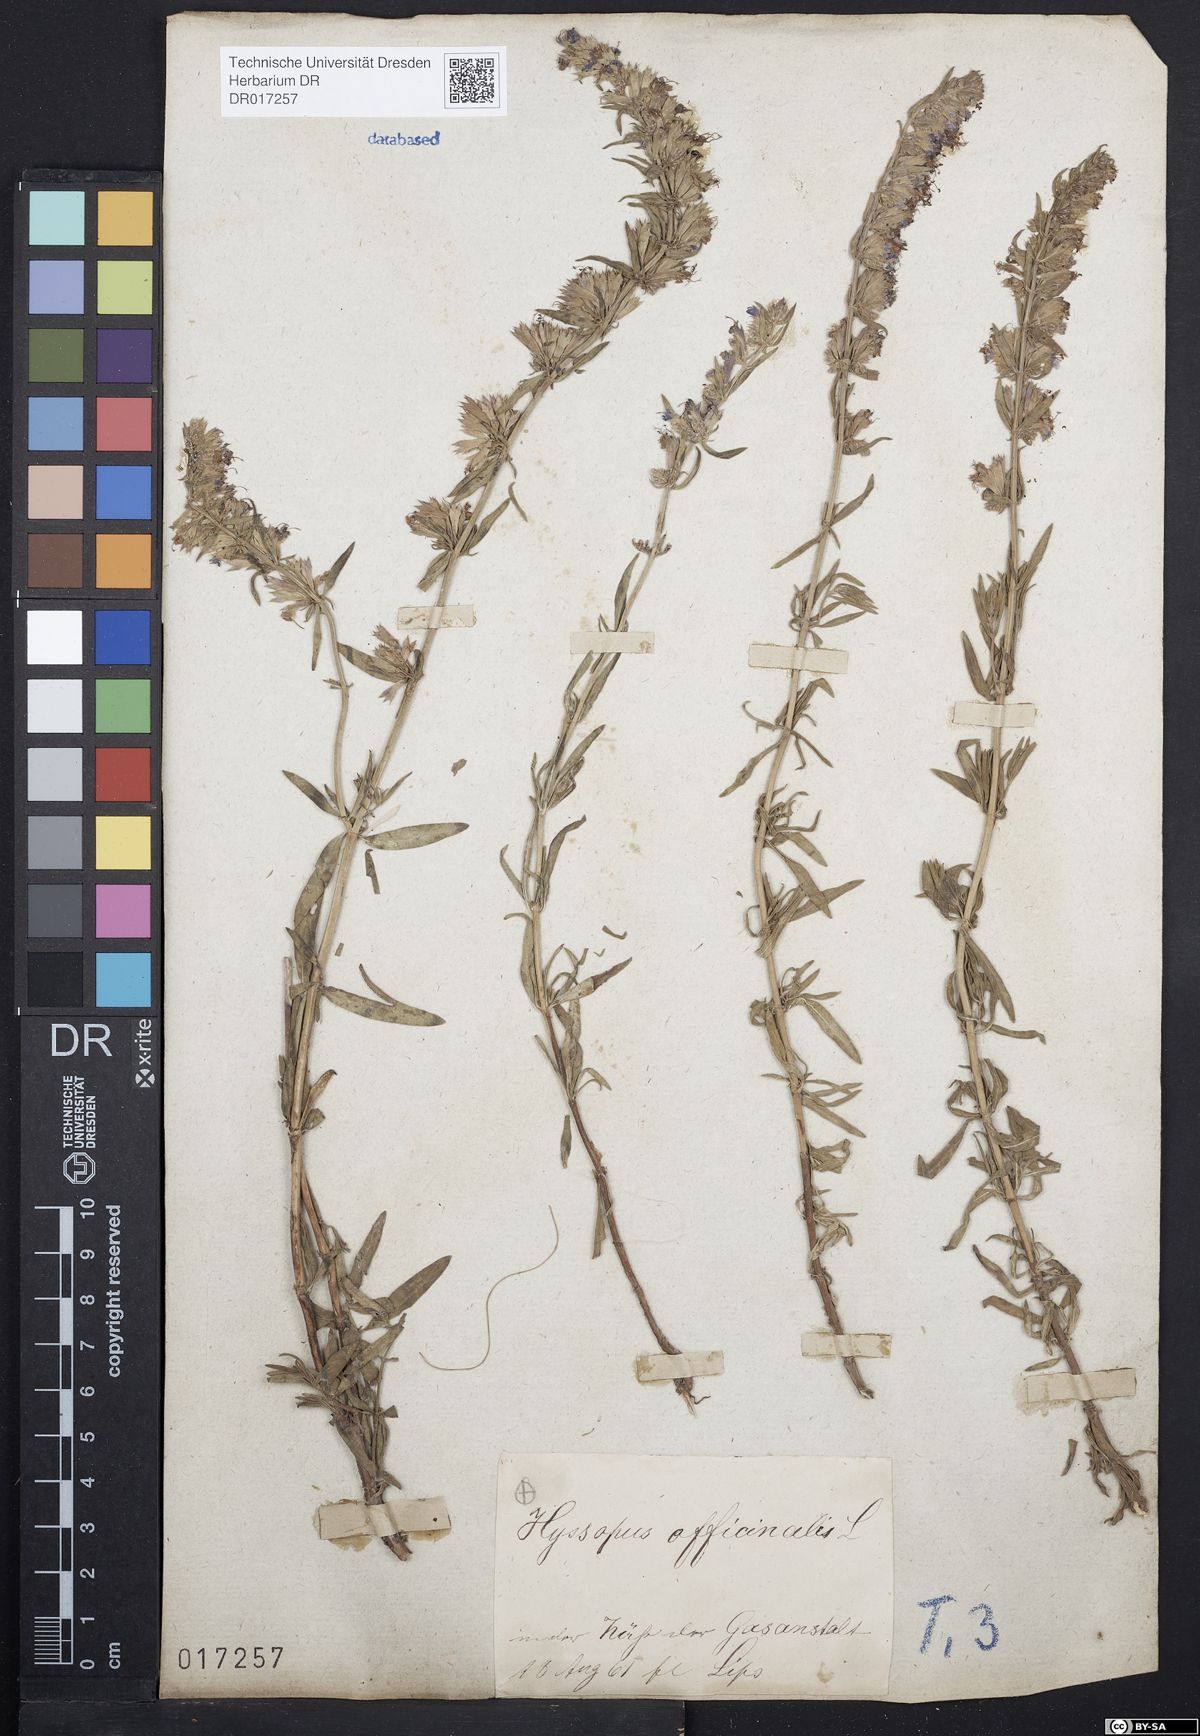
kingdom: Plantae
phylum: Tracheophyta
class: Magnoliopsida
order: Lamiales
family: Lamiaceae
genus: Hyssopus
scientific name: Hyssopus officinalis
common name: Hyssop
